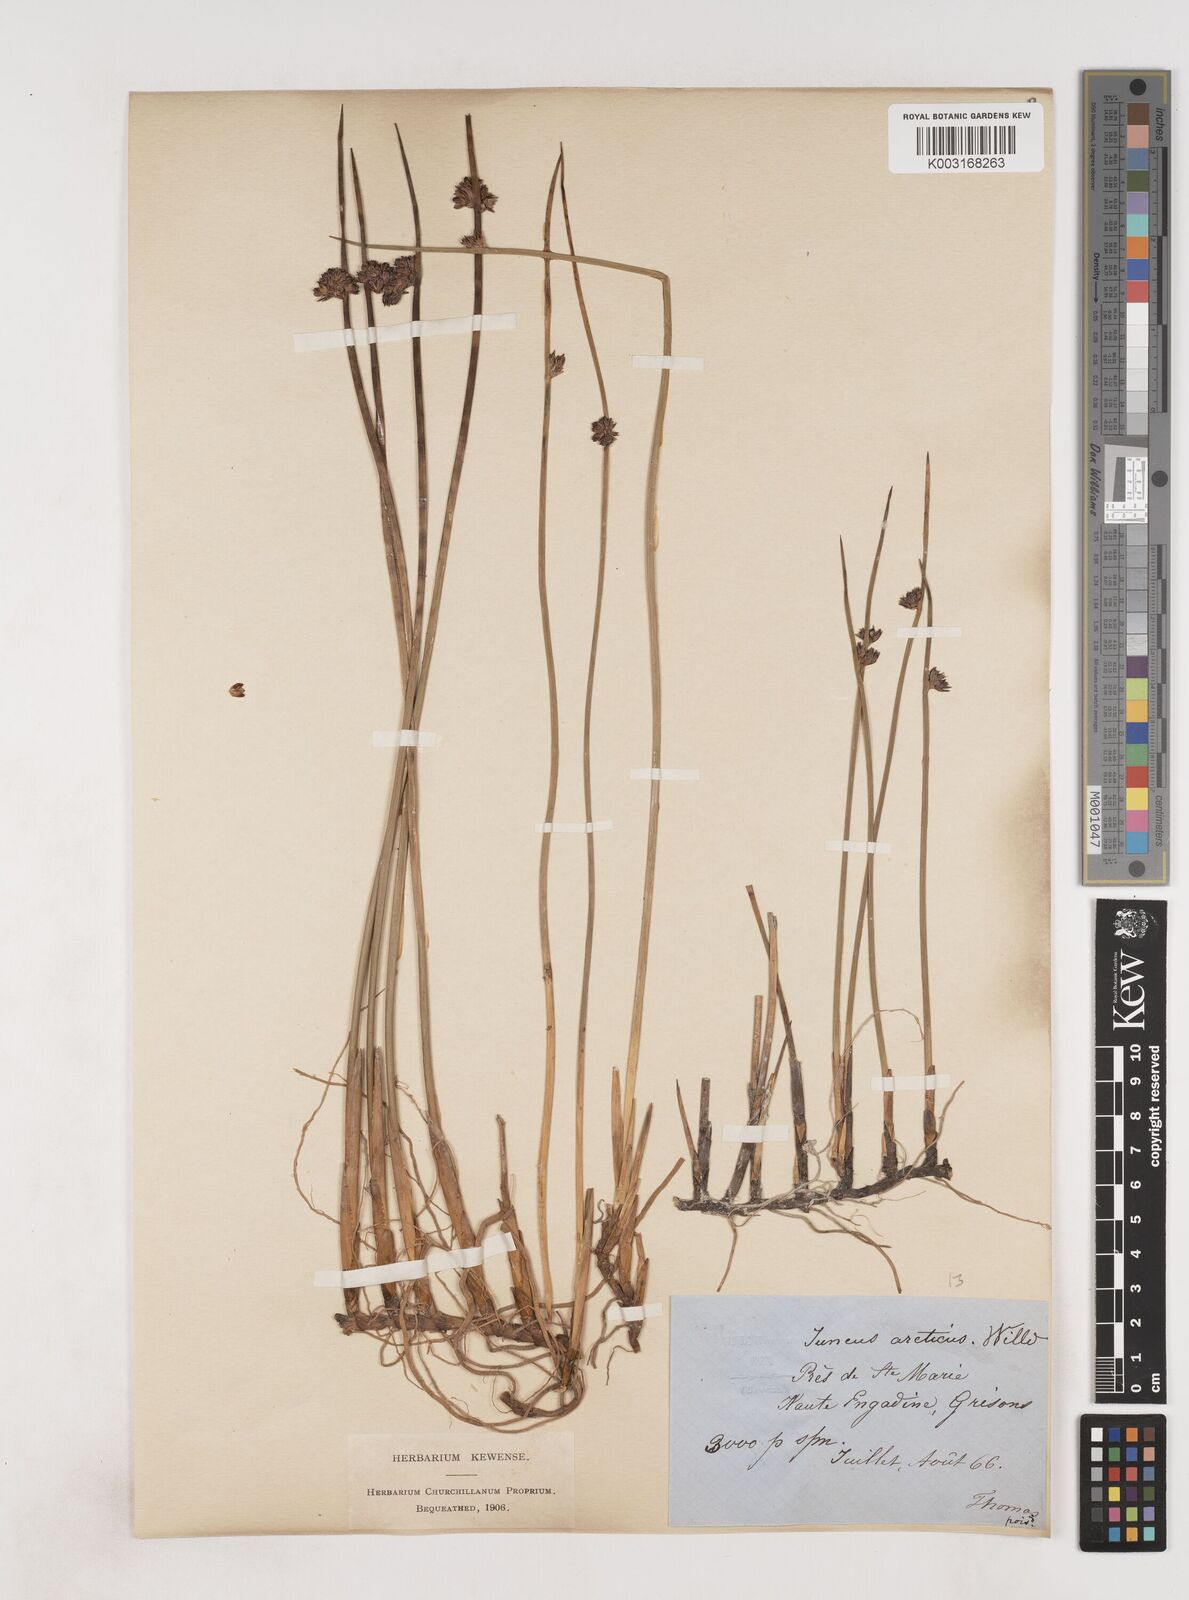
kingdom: Plantae
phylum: Tracheophyta
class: Liliopsida
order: Poales
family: Juncaceae
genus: Juncus
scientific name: Juncus arcticus
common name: Arctic rush
